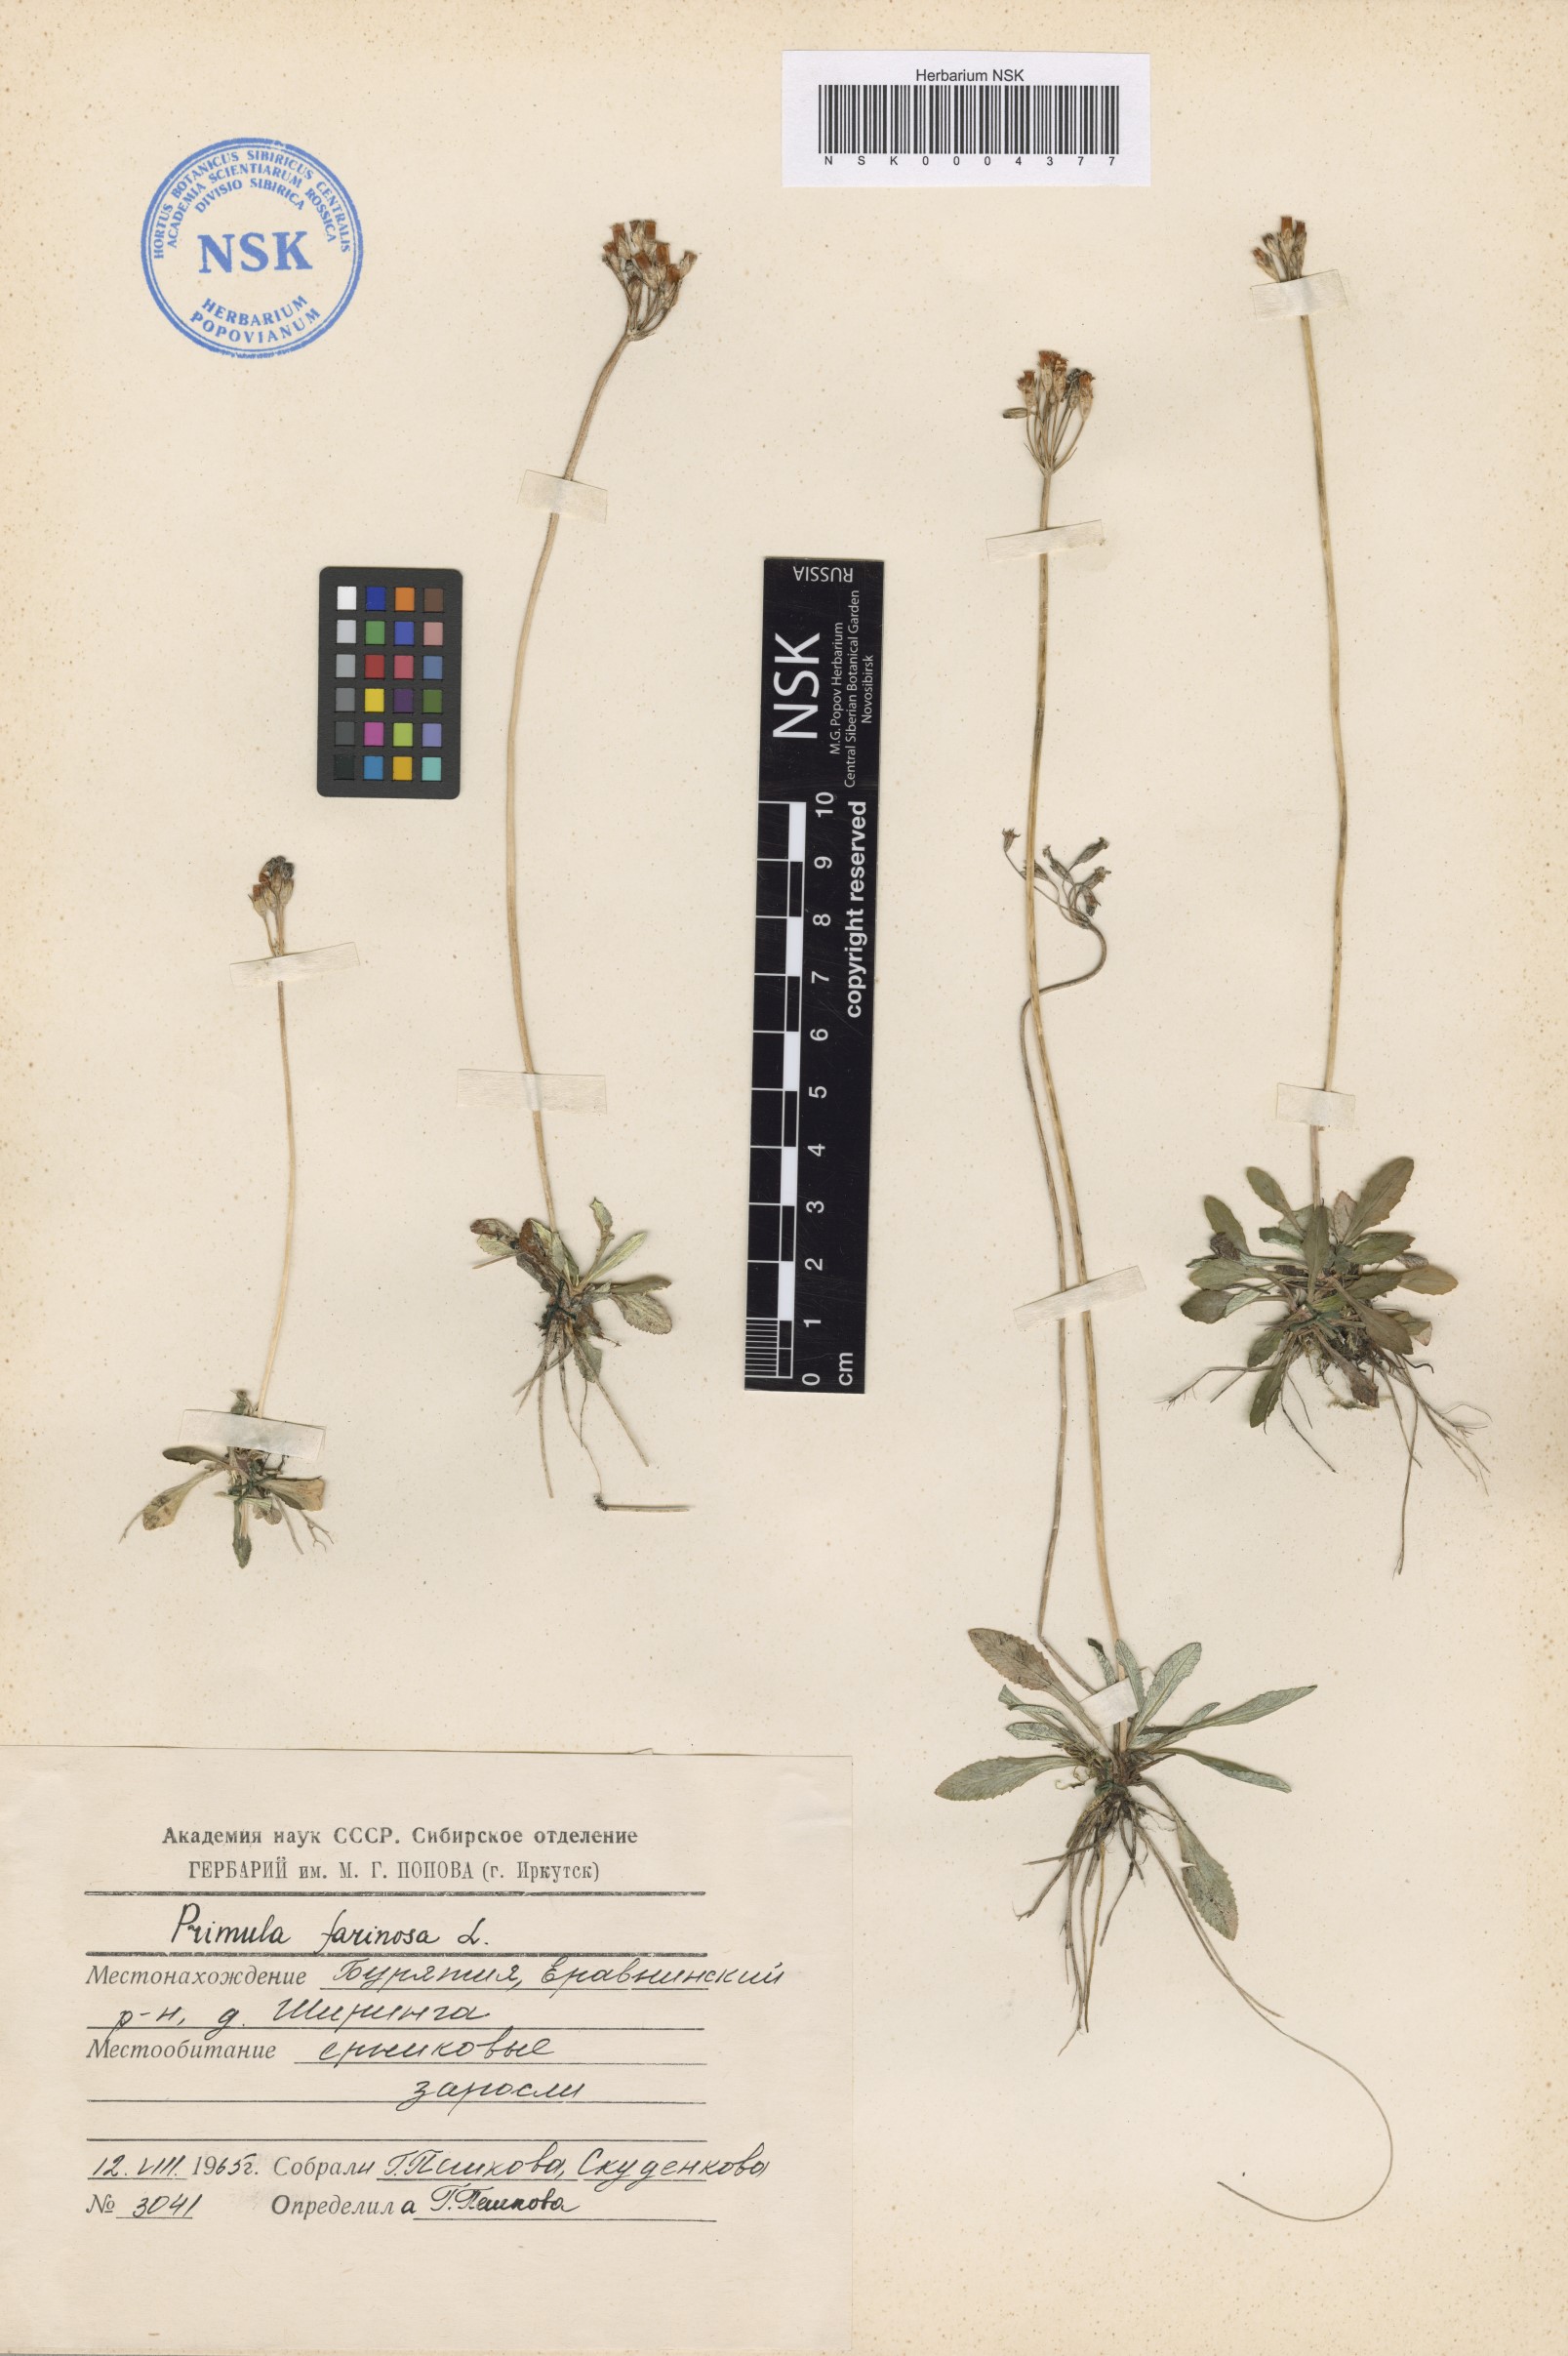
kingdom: Plantae
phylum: Tracheophyta
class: Magnoliopsida
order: Ericales
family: Primulaceae
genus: Primula
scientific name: Primula farinosa
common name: Bird's-eye primrose
